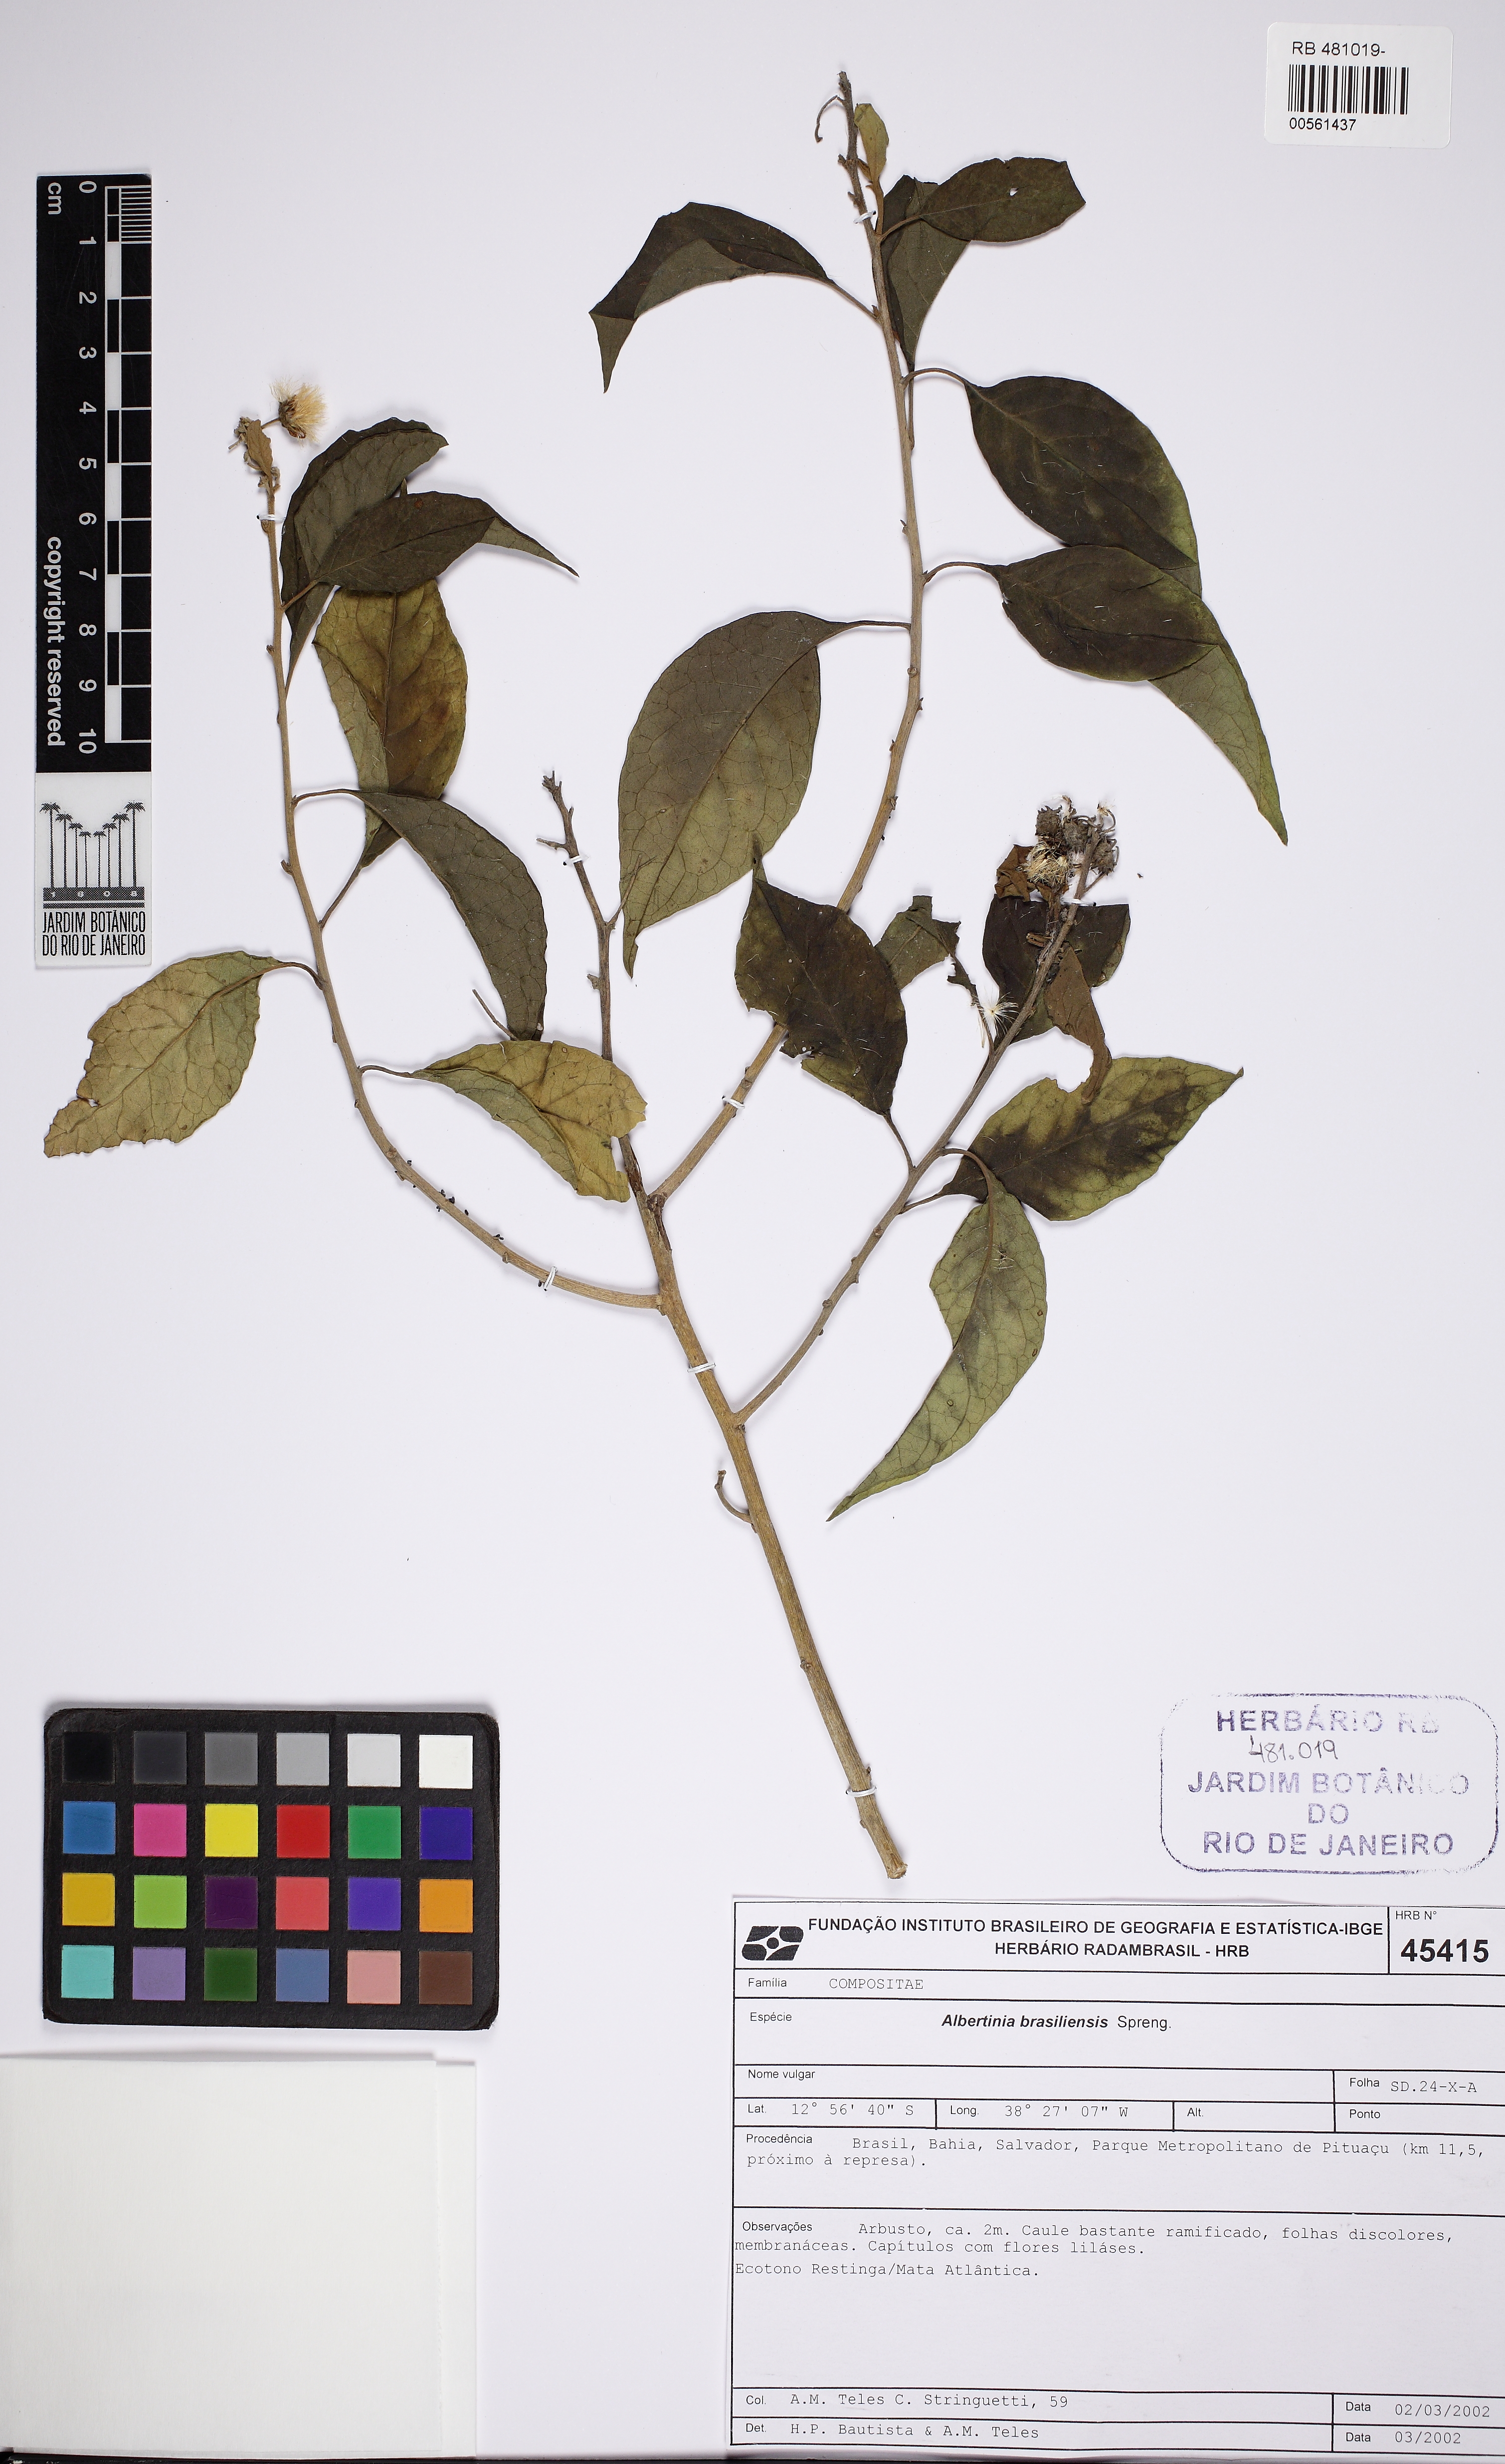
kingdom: Plantae
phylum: Tracheophyta
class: Magnoliopsida
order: Asterales
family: Asteraceae
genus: Albertinia
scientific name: Albertinia brasiliensis
